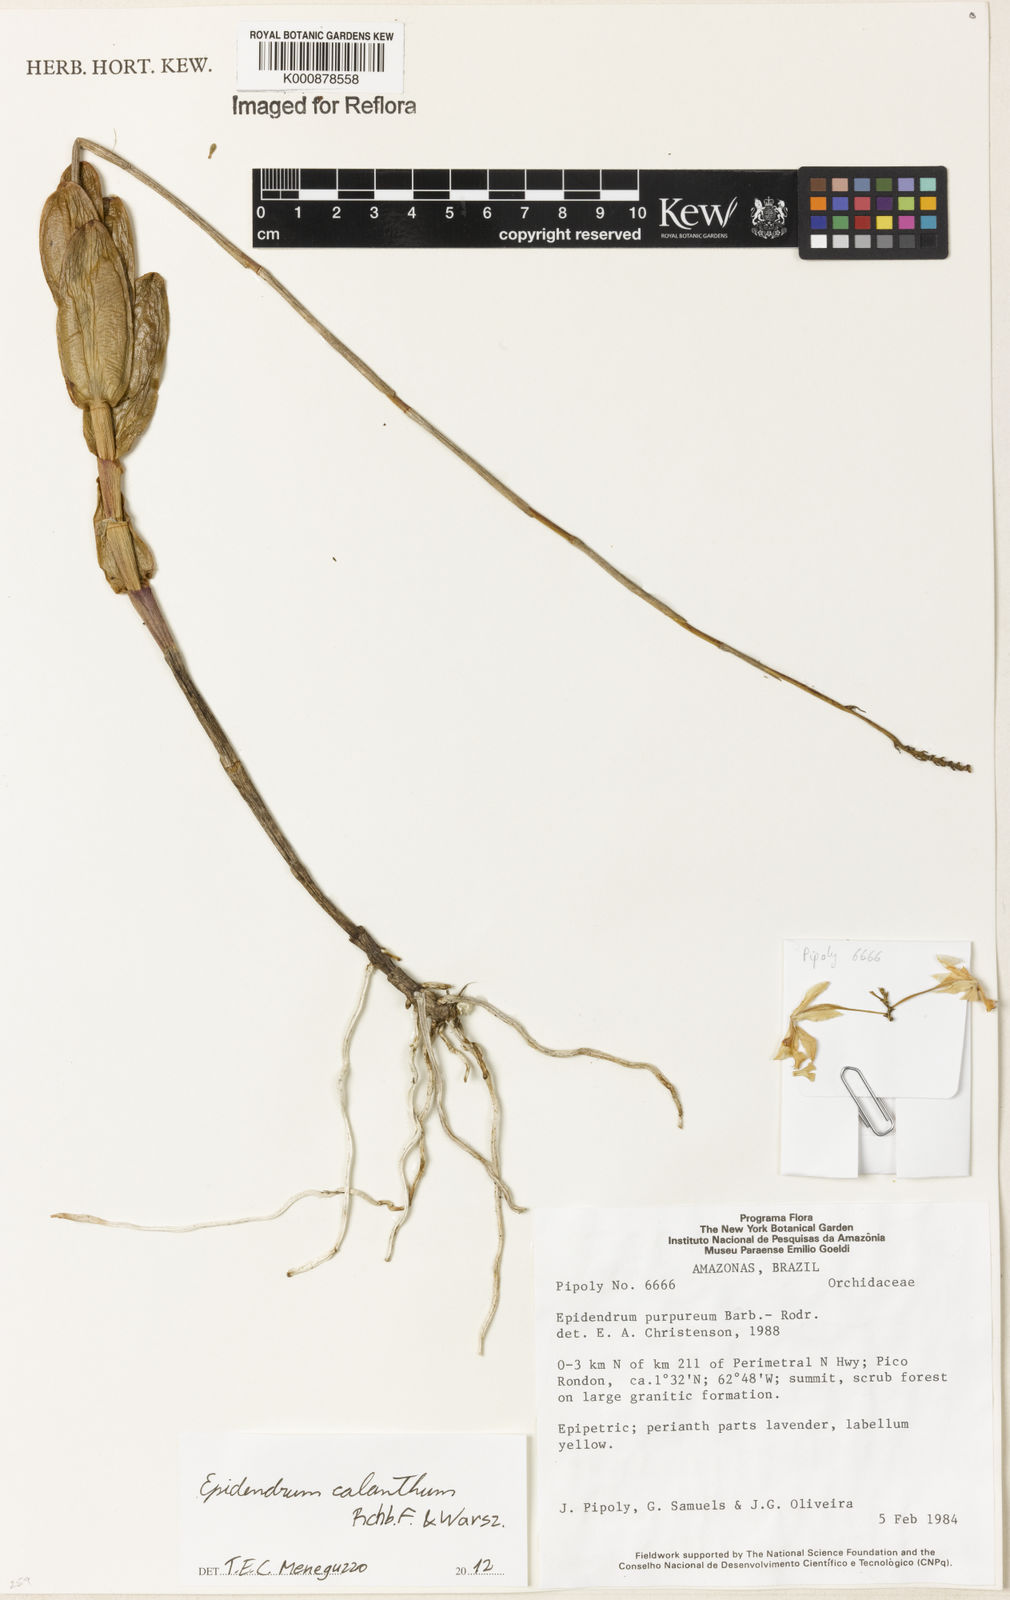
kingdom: Plantae
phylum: Tracheophyta
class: Liliopsida
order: Asparagales
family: Orchidaceae
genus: Epidendrum
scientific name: Epidendrum calanthum
